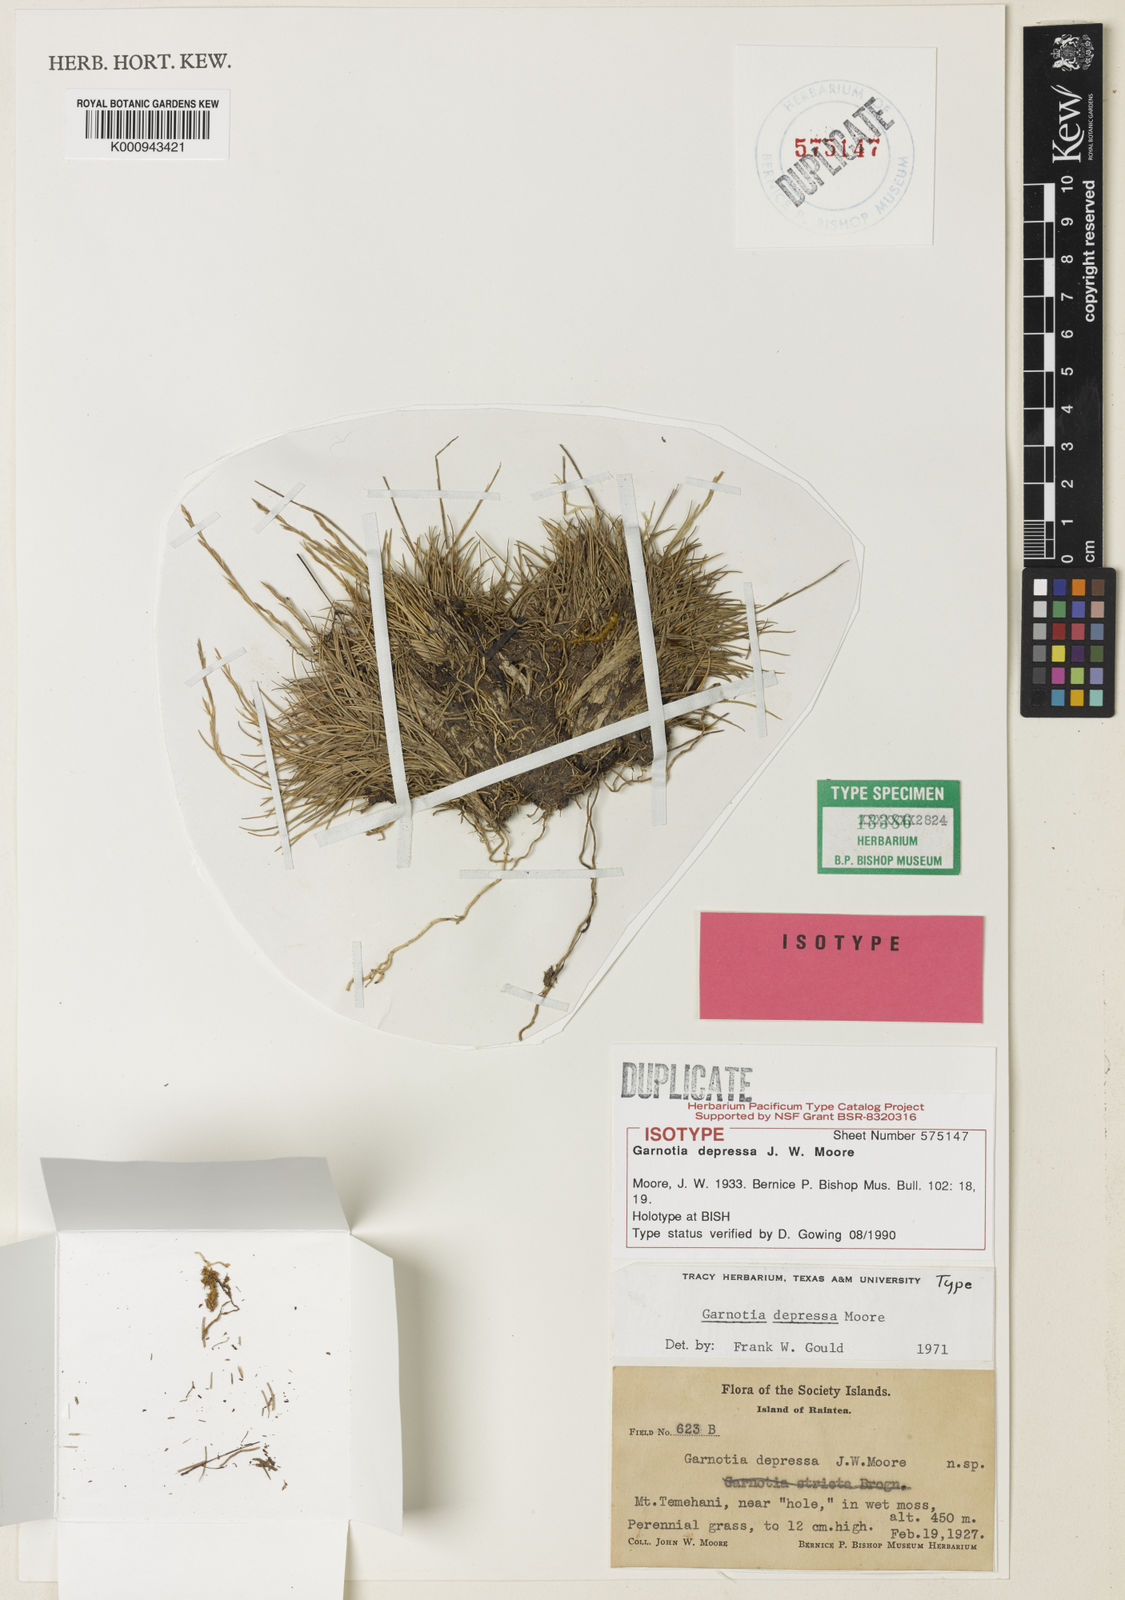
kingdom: Plantae
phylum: Tracheophyta
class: Liliopsida
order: Poales
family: Poaceae
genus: Garnotia
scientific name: Garnotia depressa
